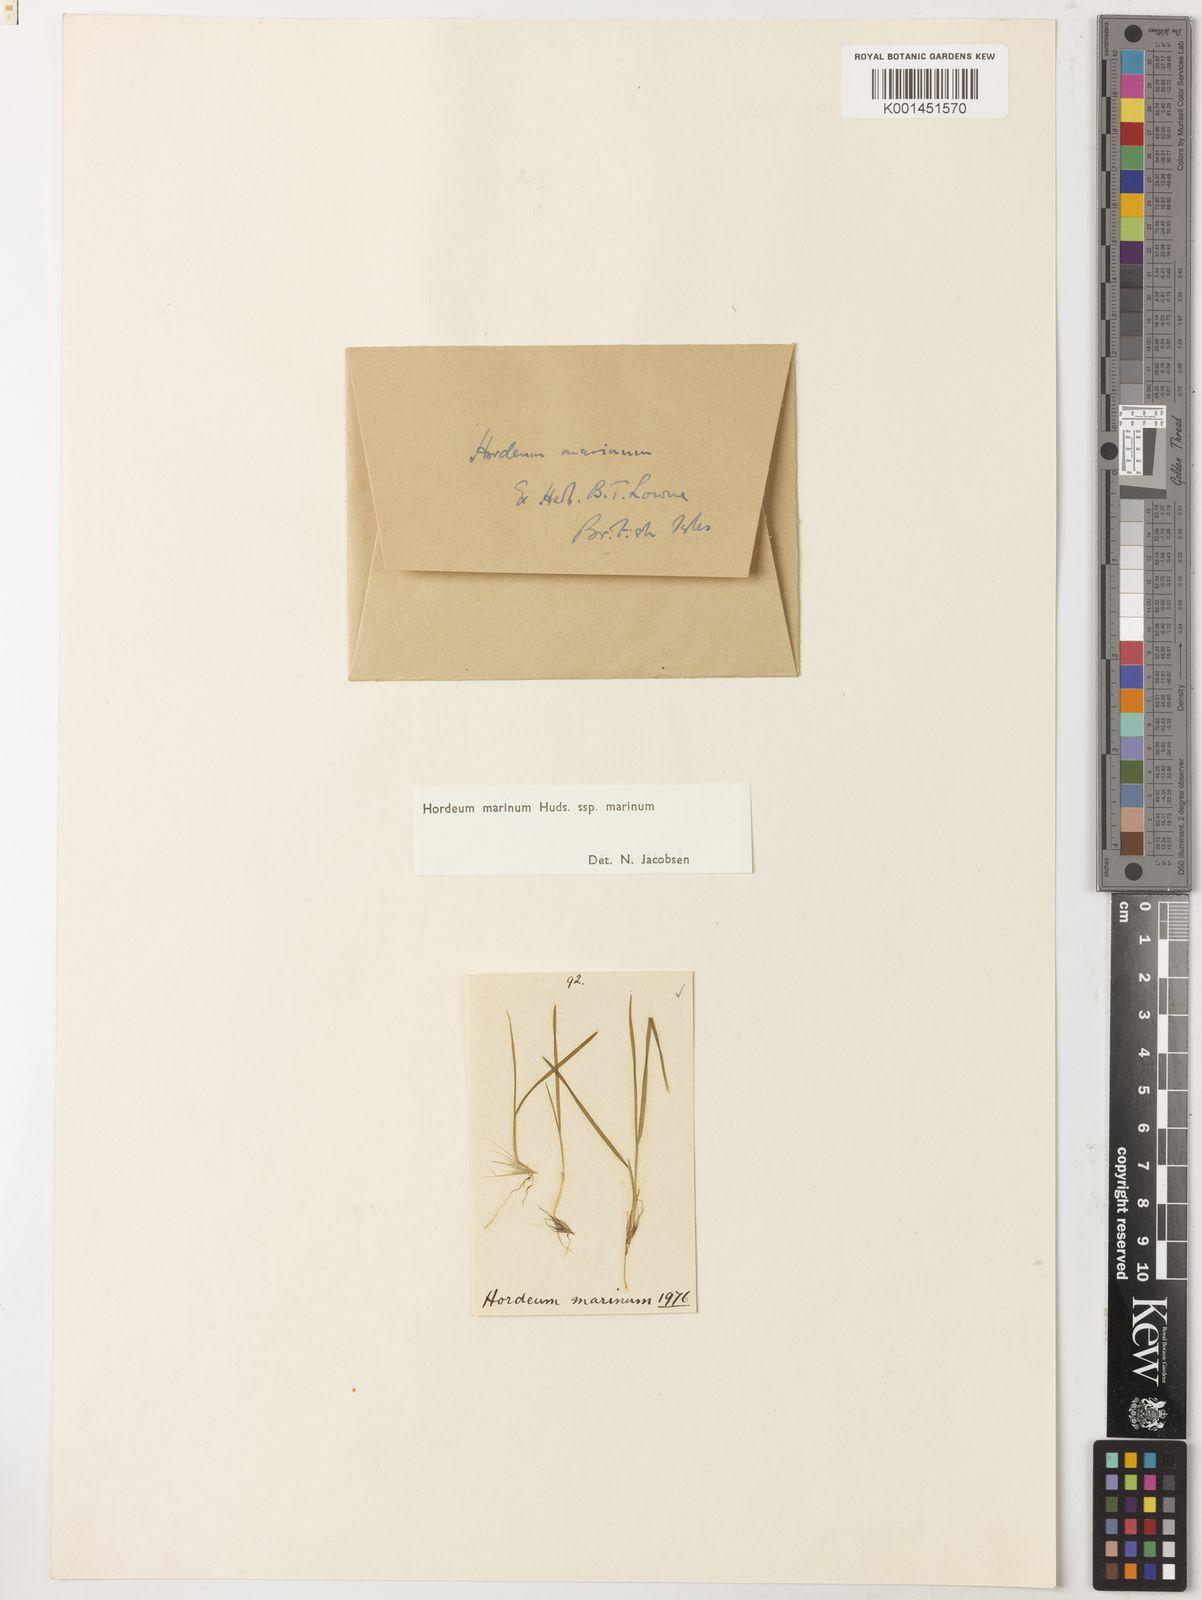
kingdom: Plantae
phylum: Tracheophyta
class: Liliopsida
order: Poales
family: Poaceae
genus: Hordeum
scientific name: Hordeum marinum
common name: Sea barley
